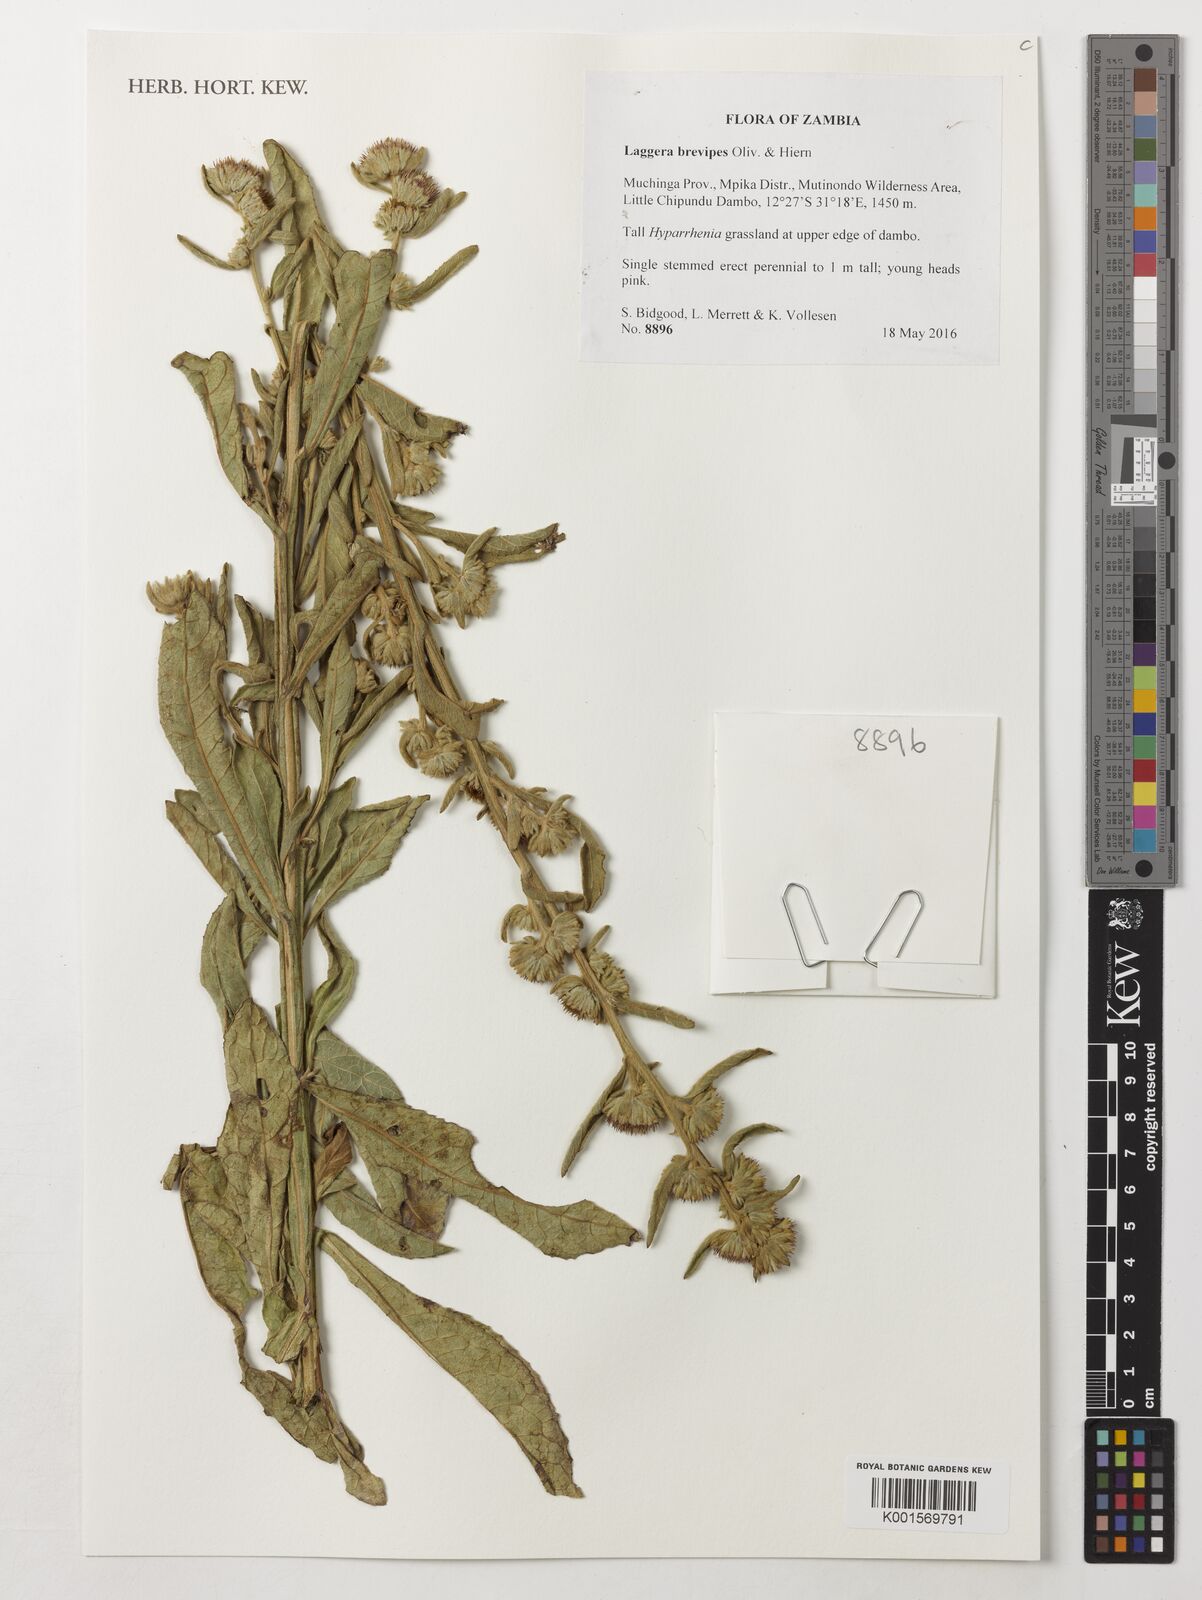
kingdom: Plantae
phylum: Tracheophyta
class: Magnoliopsida
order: Asterales
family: Asteraceae
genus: Laggera
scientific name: Laggera brevipes
